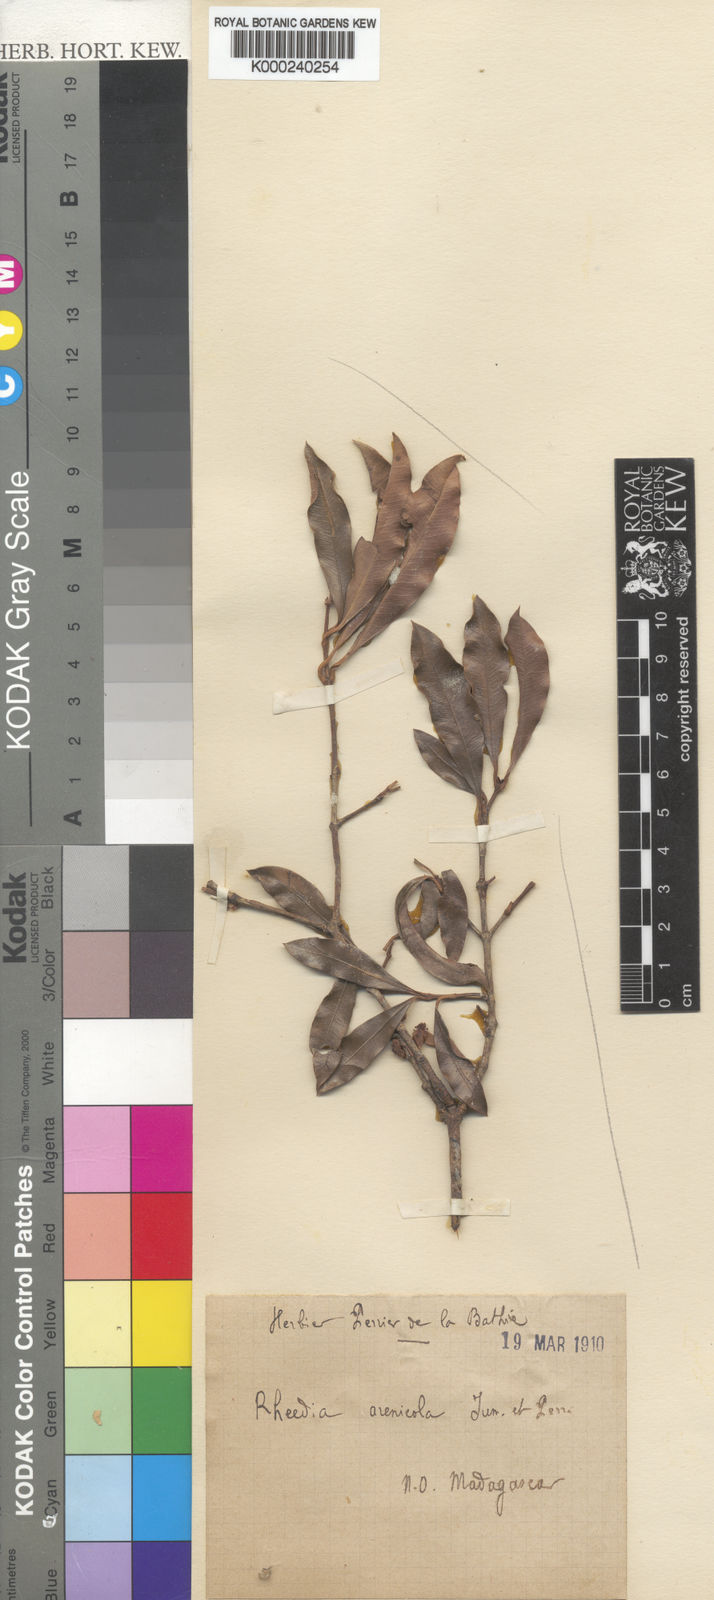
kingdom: Plantae
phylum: Tracheophyta
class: Magnoliopsida
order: Malpighiales
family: Clusiaceae
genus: Garcinia
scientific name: Garcinia arenicola
